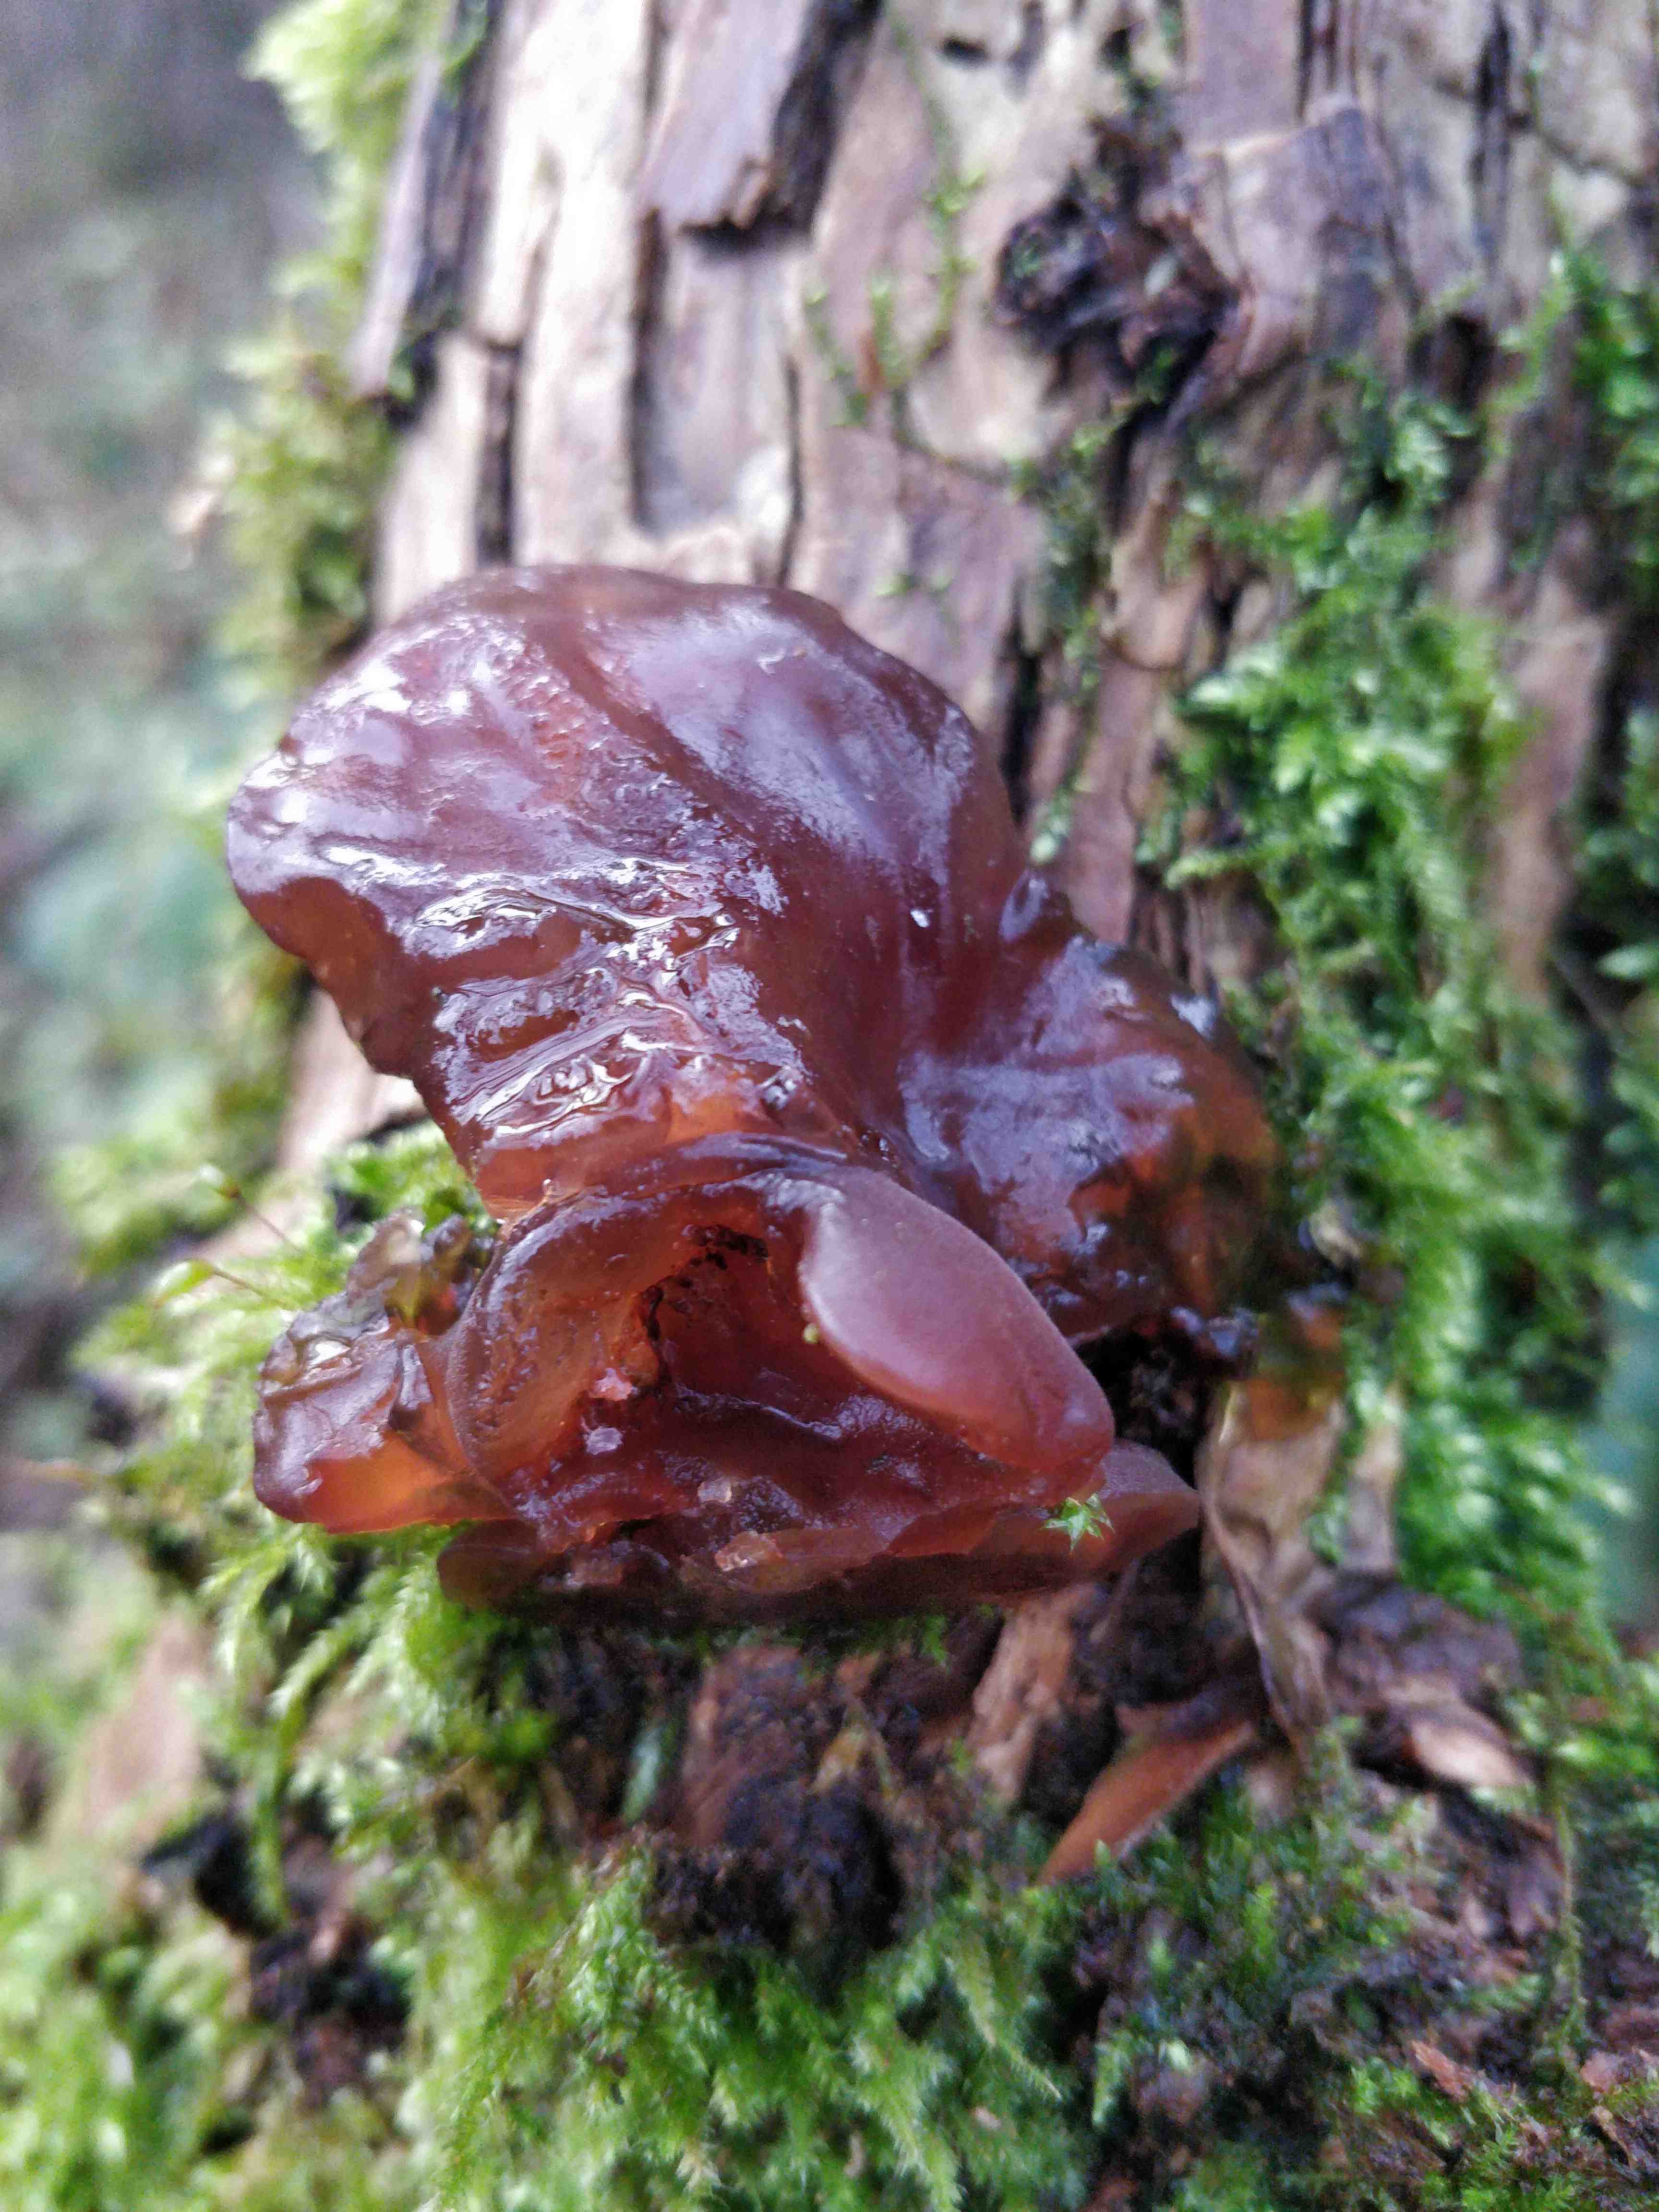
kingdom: Fungi
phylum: Basidiomycota
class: Agaricomycetes
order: Auriculariales
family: Auriculariaceae
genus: Auricularia
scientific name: Auricularia auricula-judae
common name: almindelig judasøre
